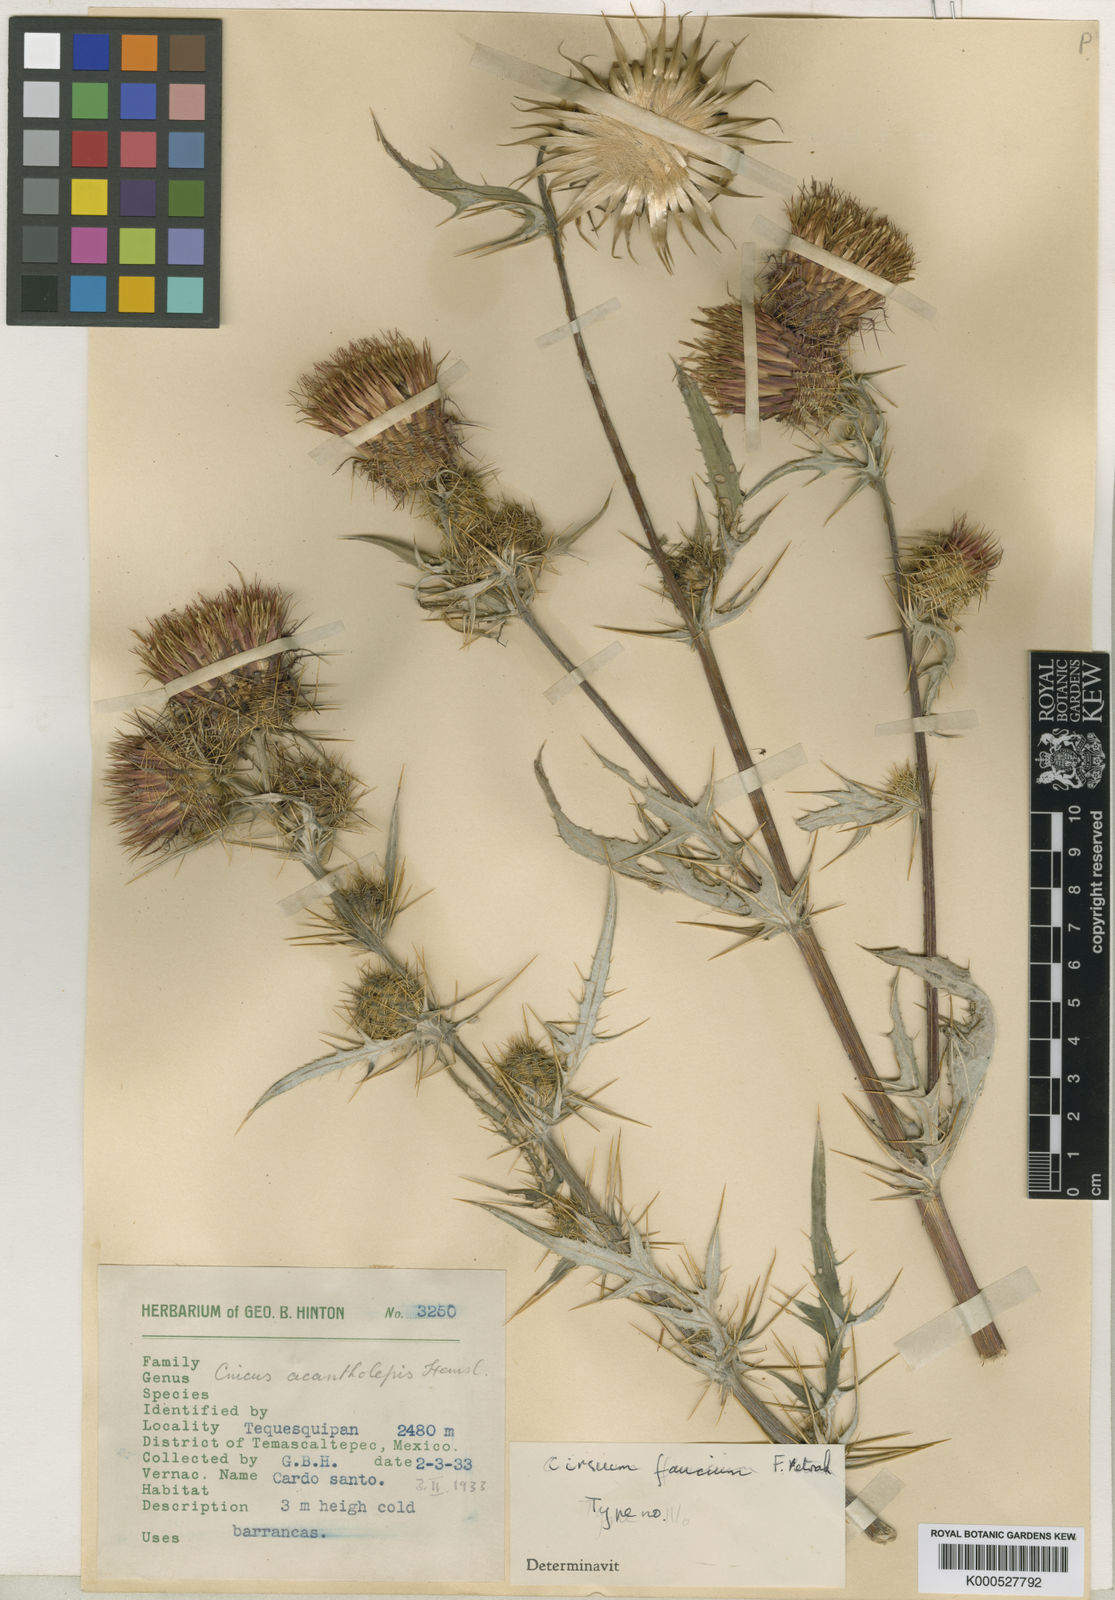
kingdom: Plantae
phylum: Tracheophyta
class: Magnoliopsida
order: Asterales
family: Asteraceae
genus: Cirsium
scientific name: Cirsium faucium
